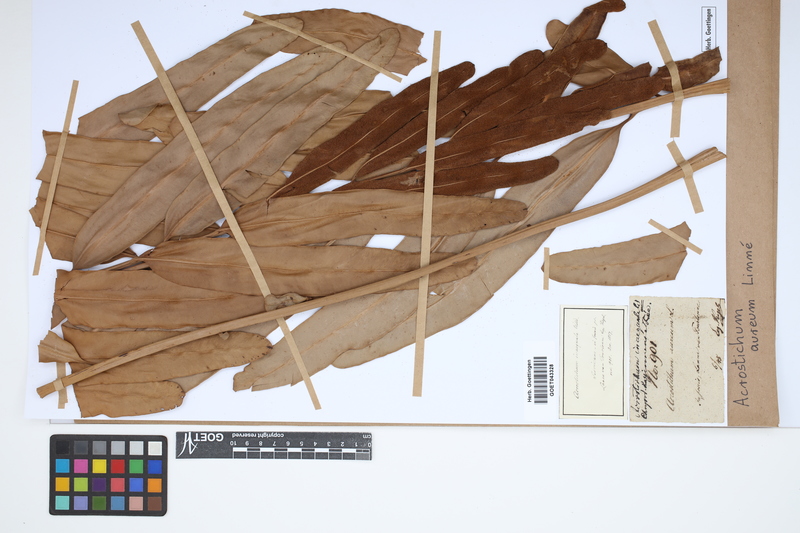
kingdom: Plantae
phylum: Tracheophyta
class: Polypodiopsida
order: Polypodiales
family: Pteridaceae
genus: Acrostichum
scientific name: Acrostichum aureum
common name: Leather fern
